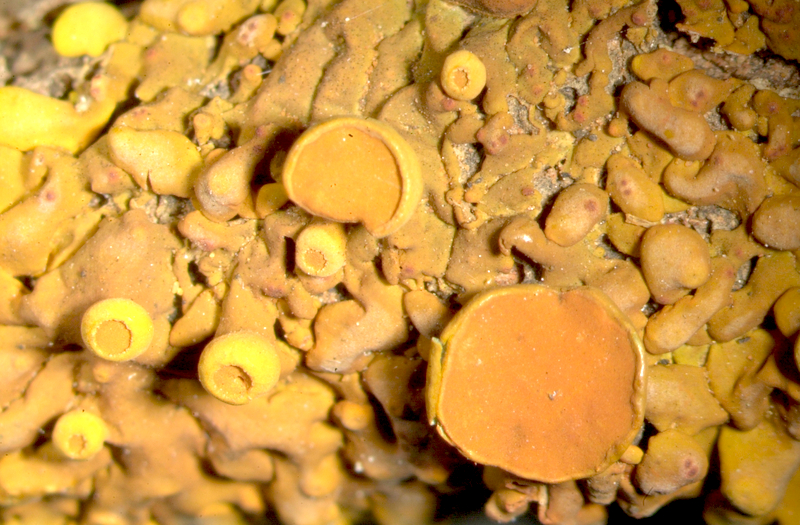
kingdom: Fungi
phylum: Ascomycota
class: Lecanoromycetes
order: Teloschistales
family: Teloschistaceae
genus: Dufourea
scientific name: Dufourea alexanderbaai
